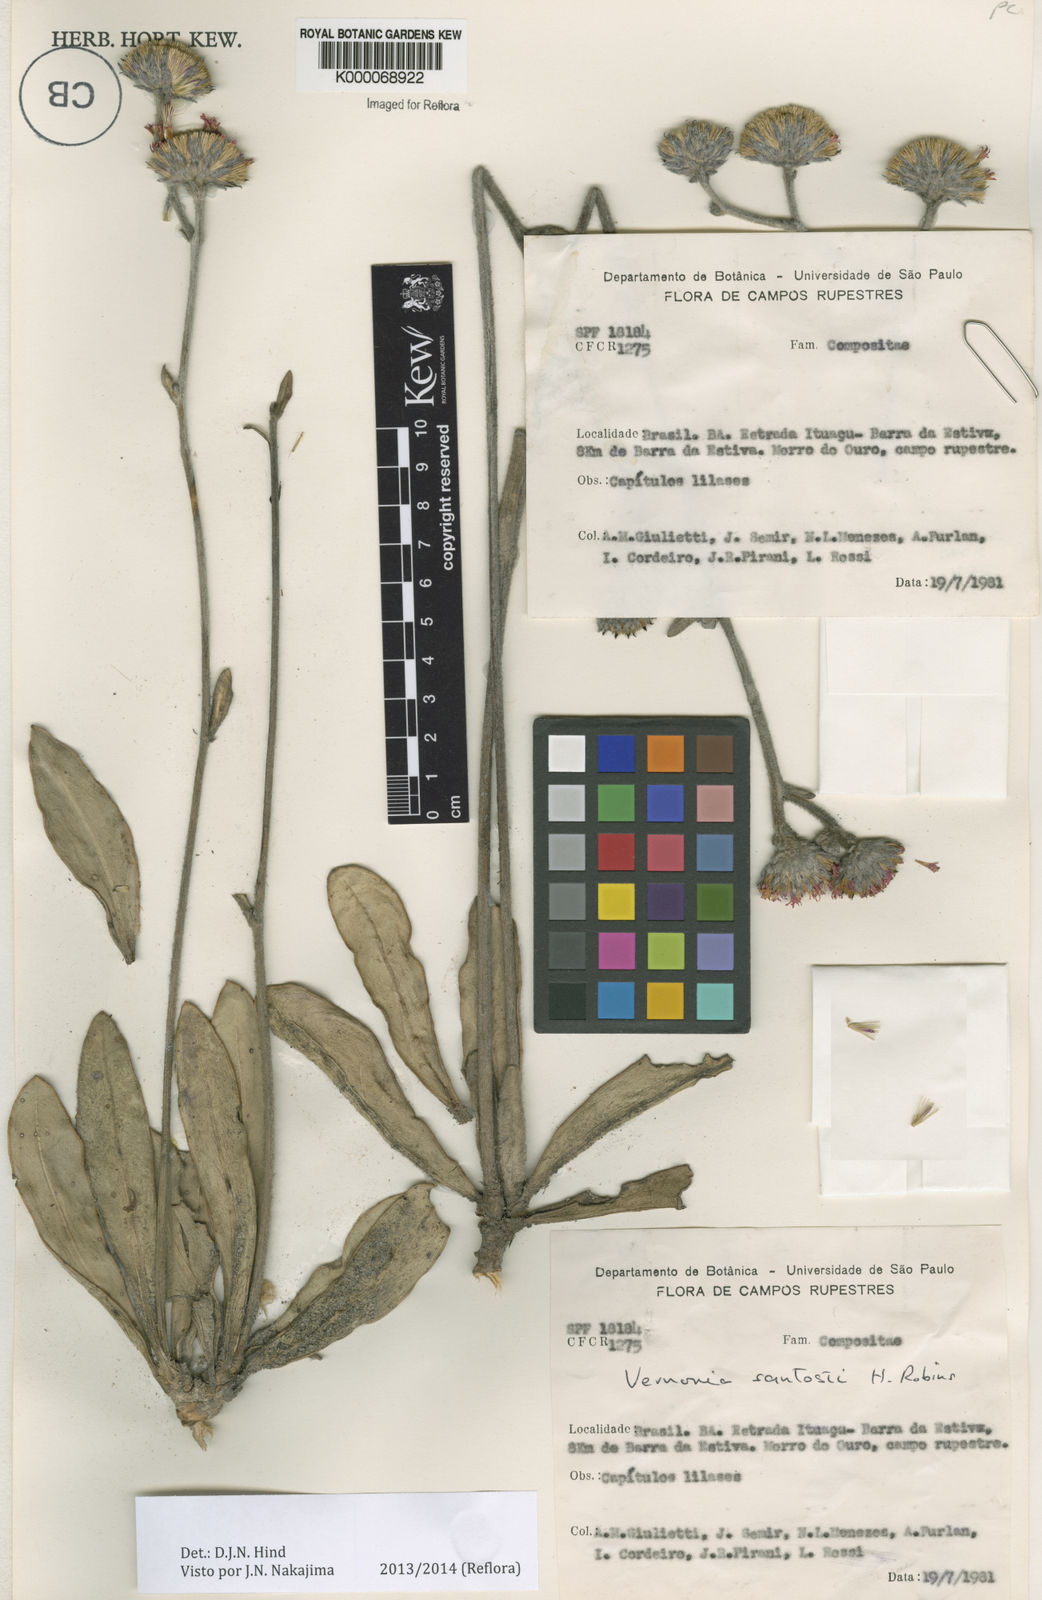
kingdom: Plantae
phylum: Tracheophyta
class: Magnoliopsida
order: Asterales
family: Asteraceae
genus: Lessingianthus
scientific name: Lessingianthus santosii
